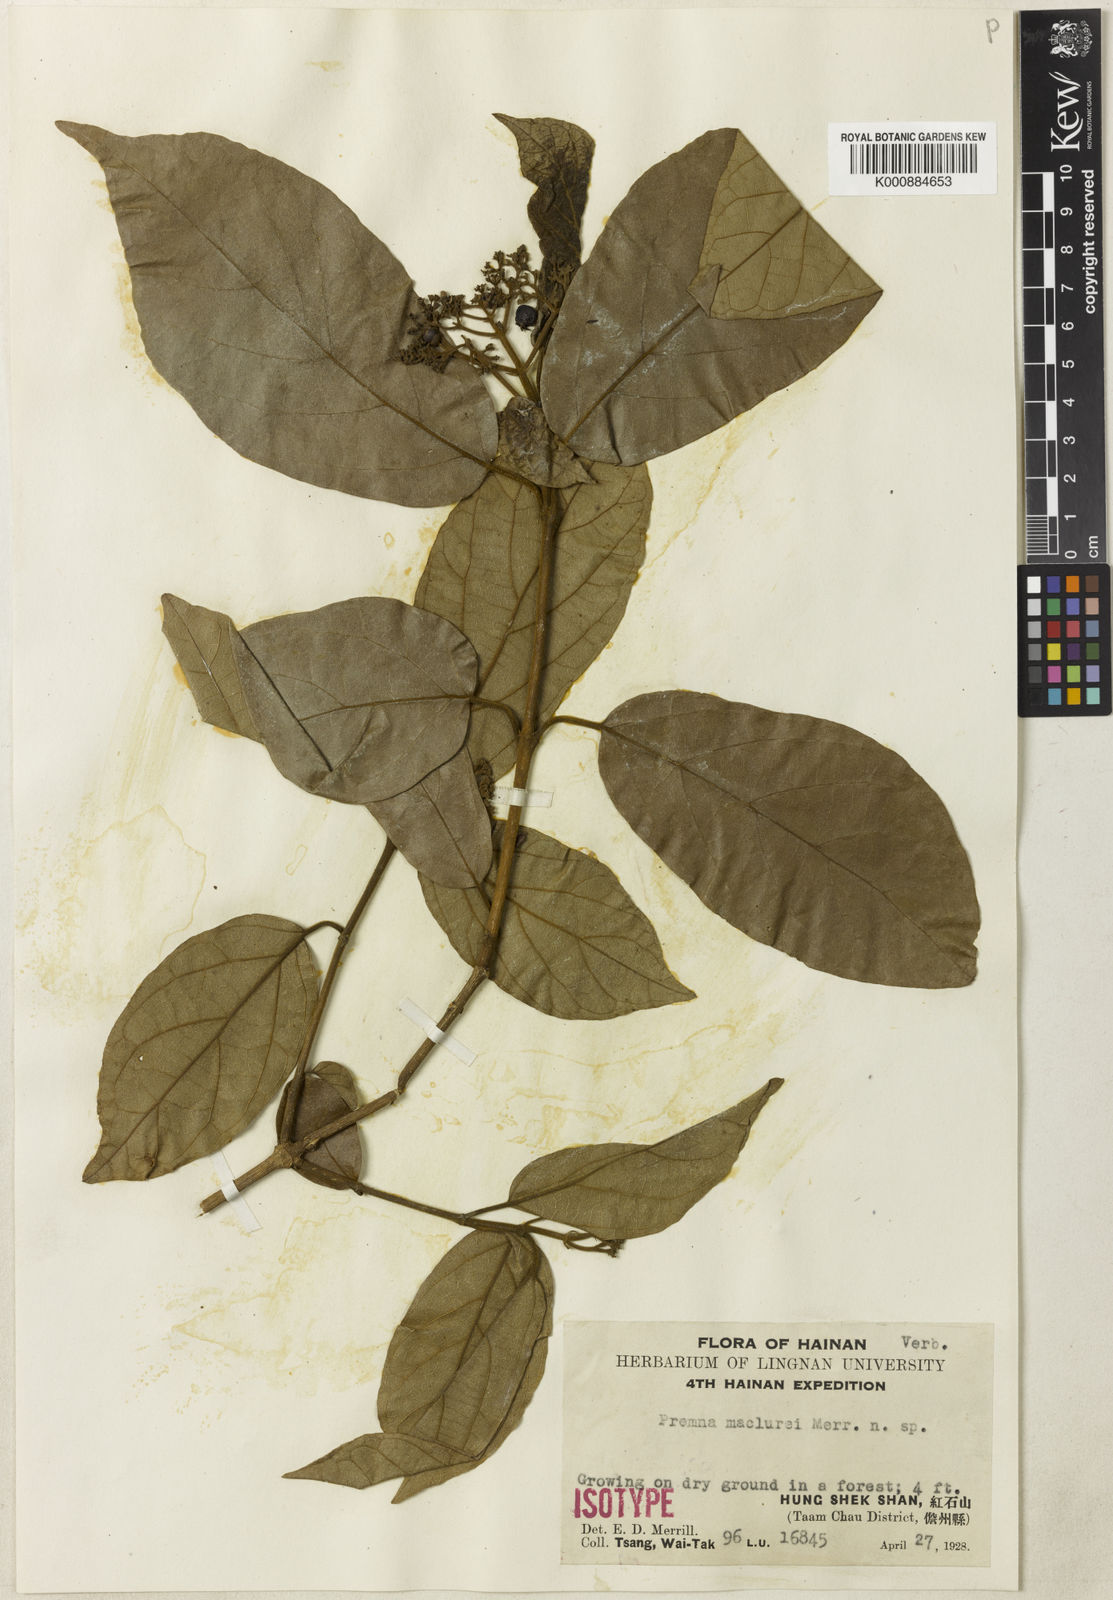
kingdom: Plantae
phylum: Tracheophyta
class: Magnoliopsida
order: Lamiales
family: Lamiaceae
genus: Premna
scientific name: Premna odorata
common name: Fragrant premna
